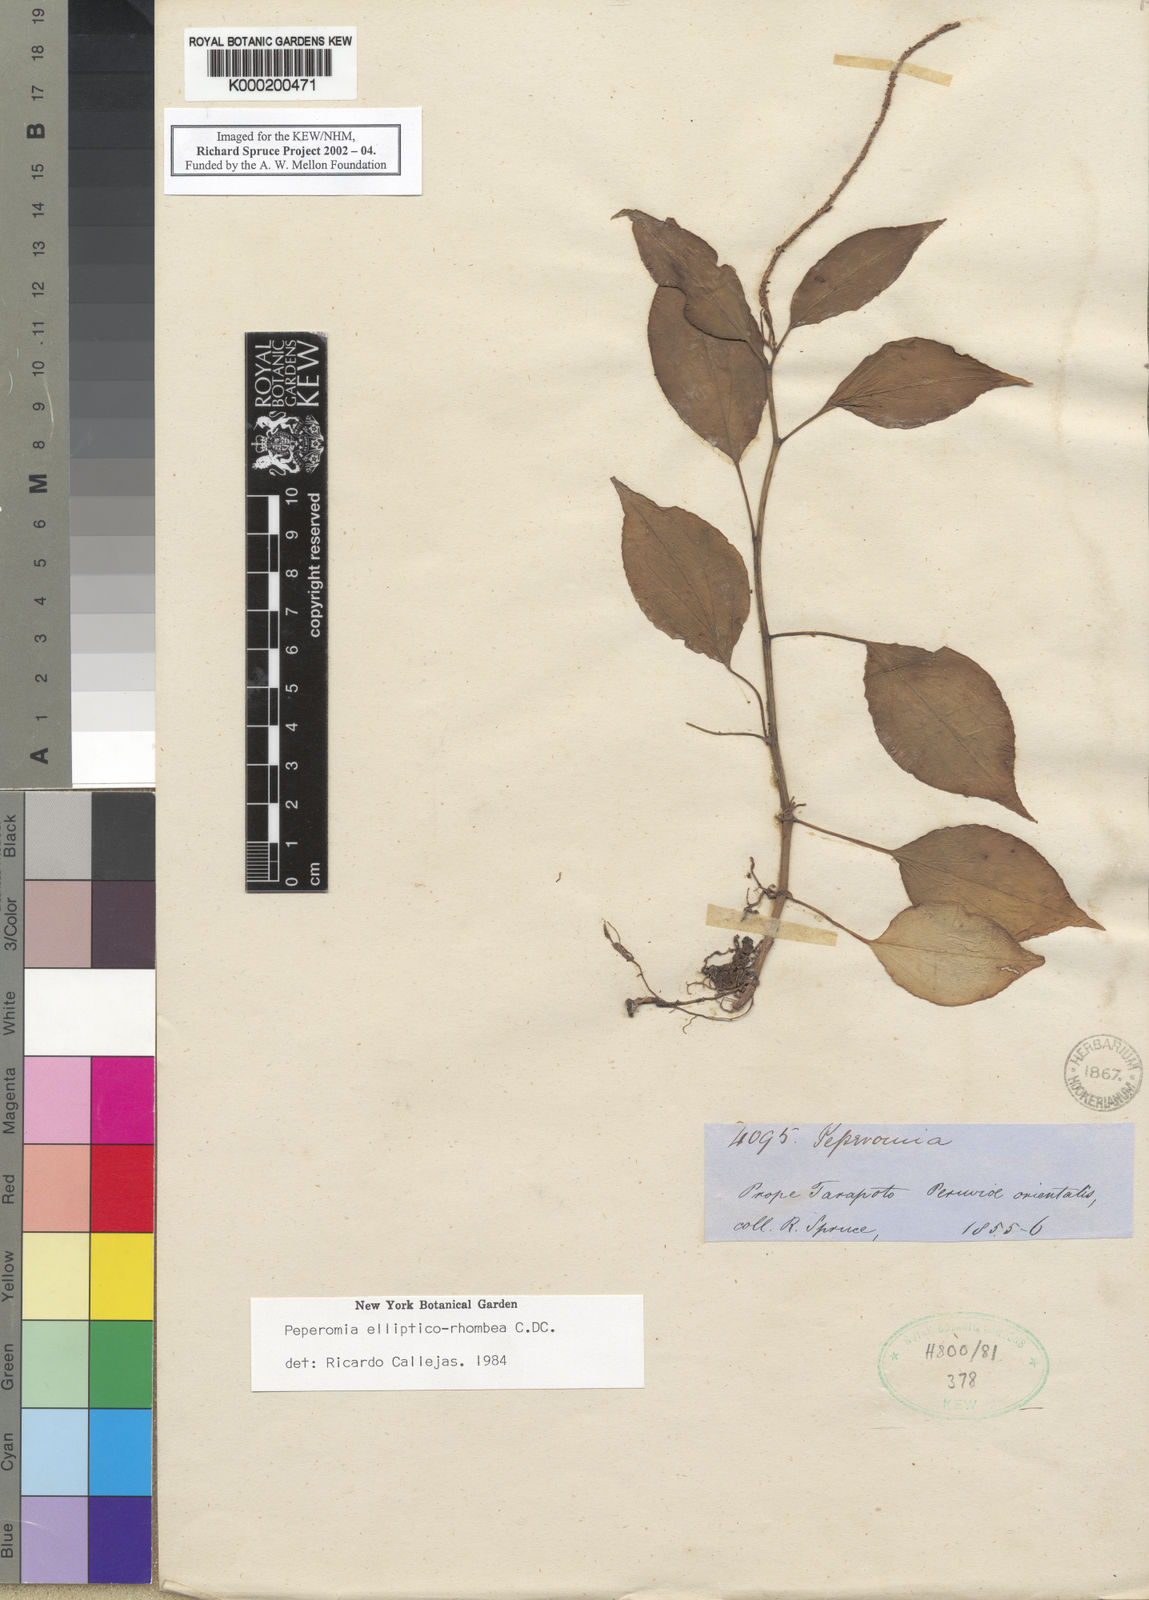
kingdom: Plantae
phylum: Tracheophyta
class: Magnoliopsida
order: Piperales
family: Piperaceae
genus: Peperomia
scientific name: Peperomia ellipticorhombea
